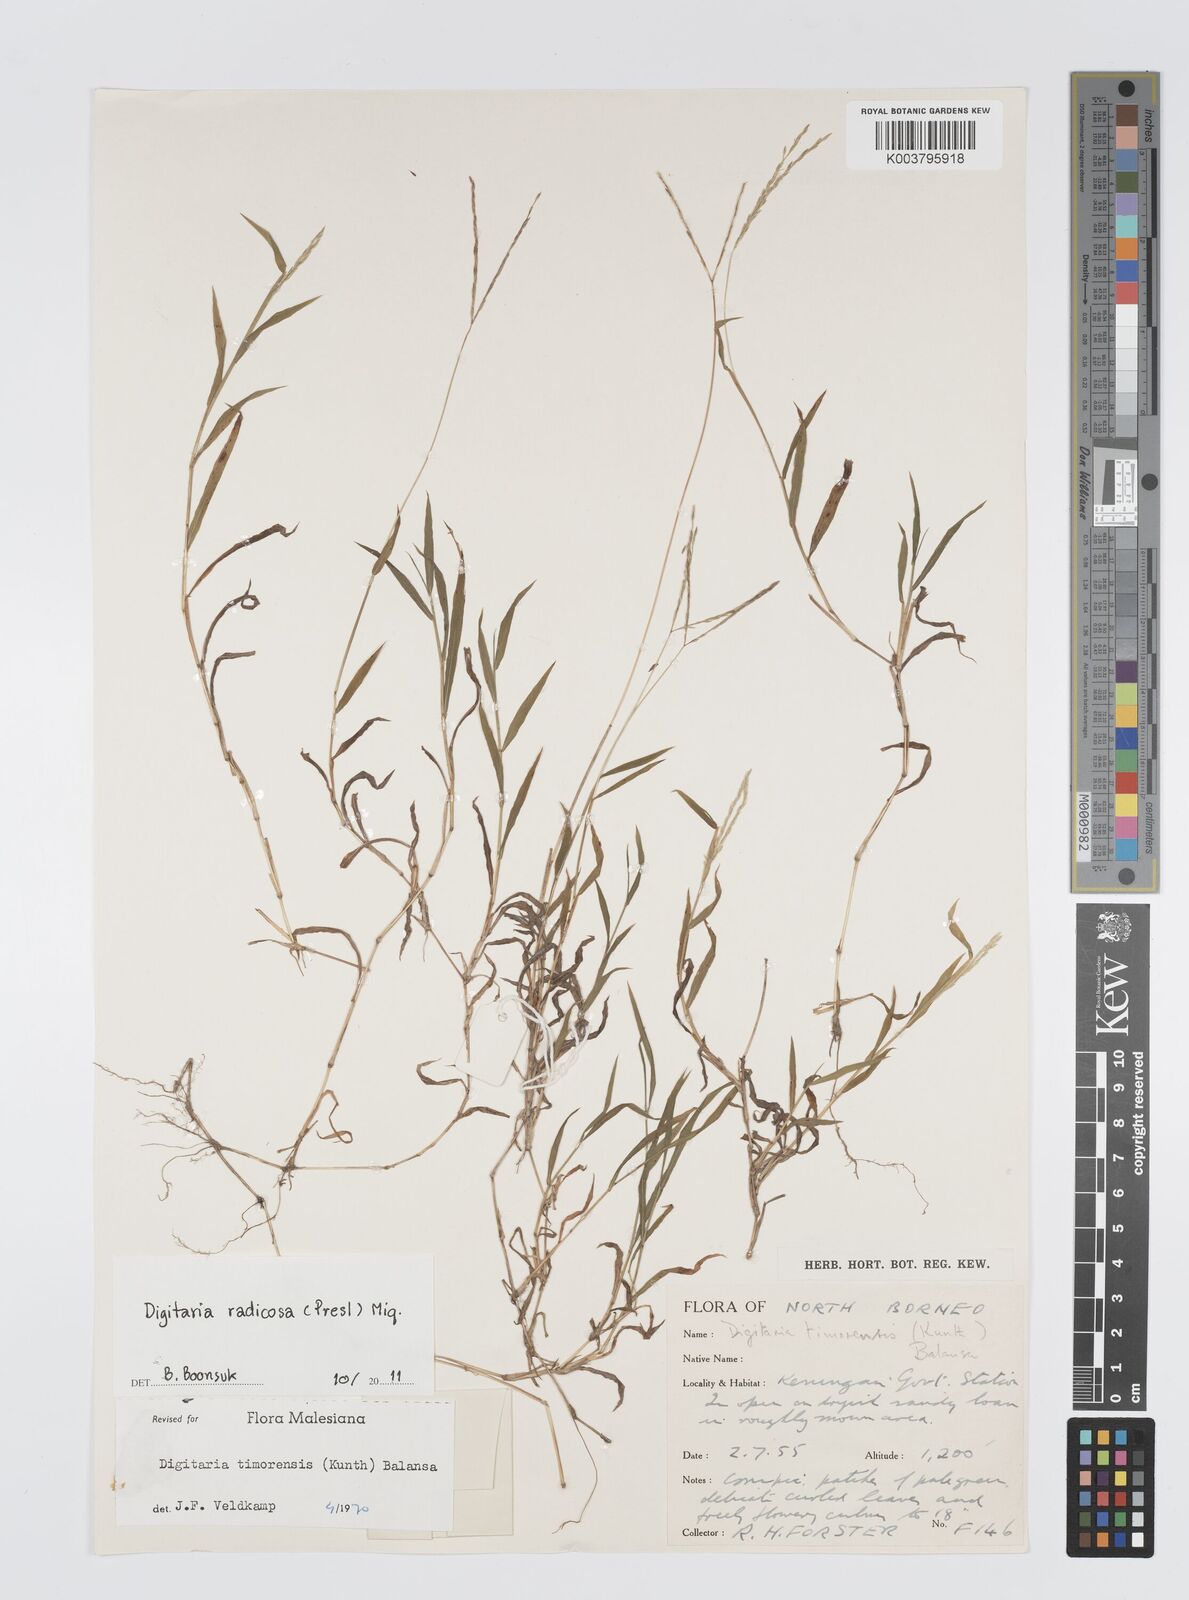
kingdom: Plantae
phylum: Tracheophyta
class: Liliopsida
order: Poales
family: Poaceae
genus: Digitaria
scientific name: Digitaria radicosa
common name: Trailing crabgrass
